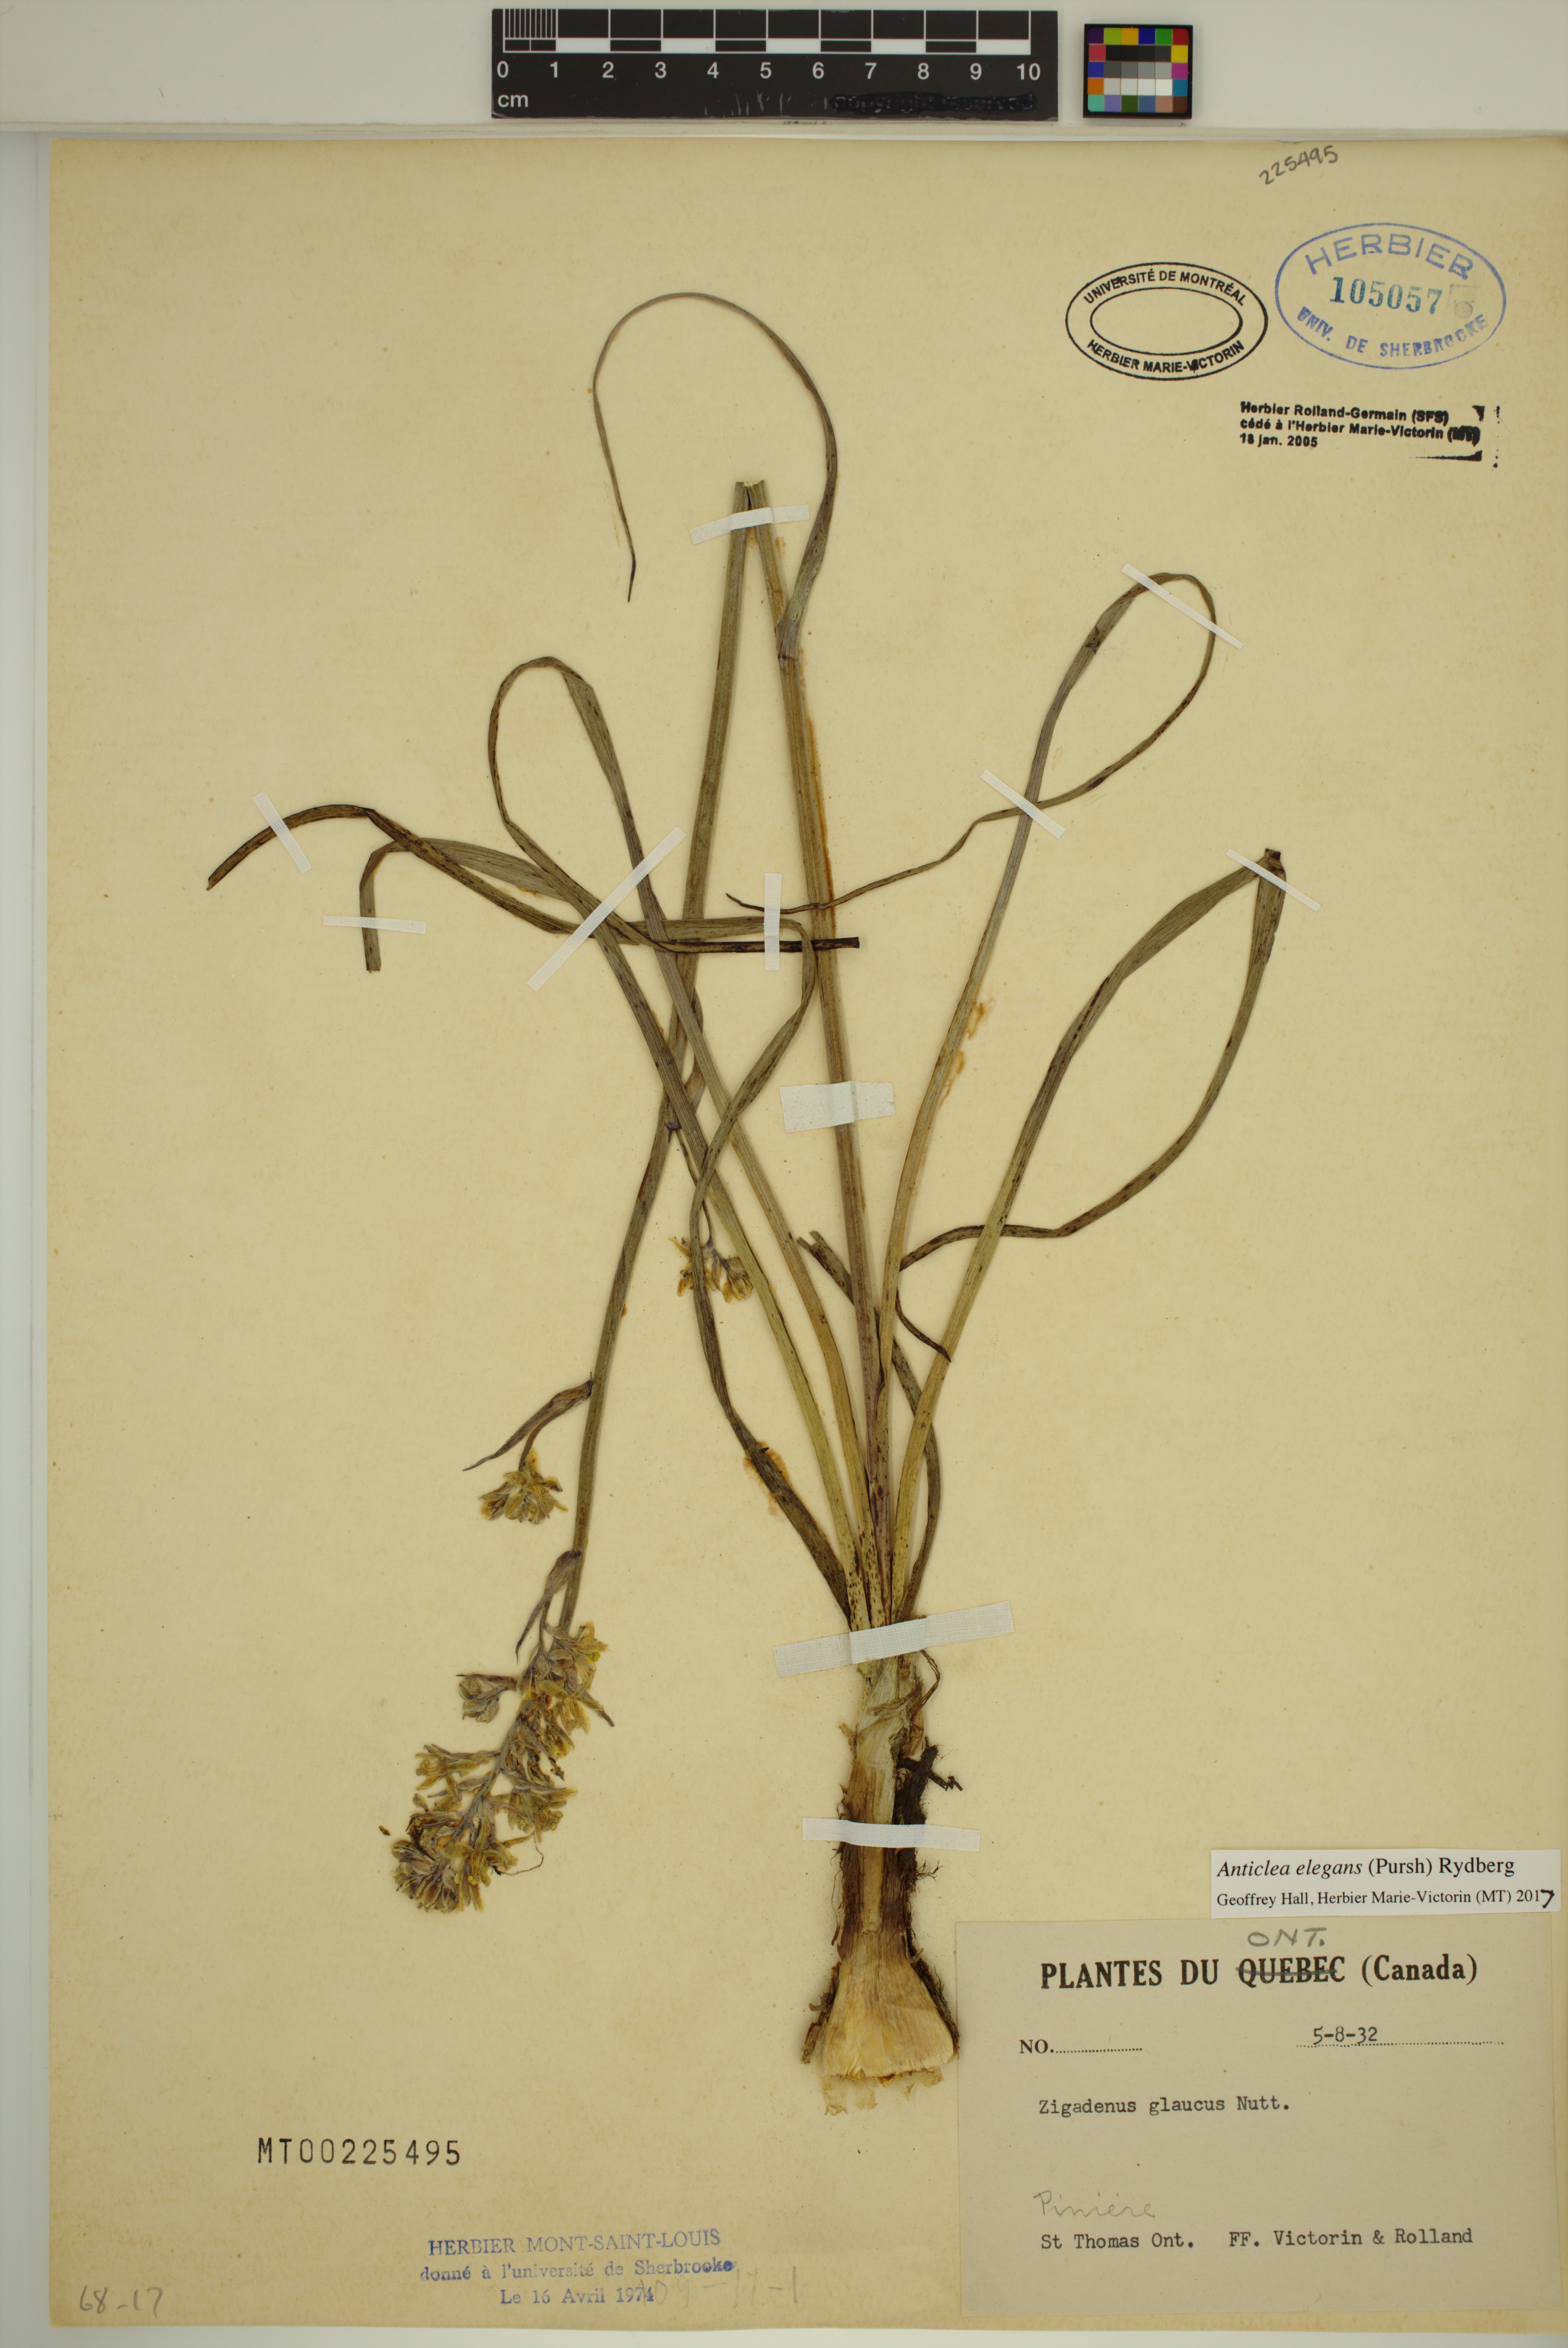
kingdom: Plantae
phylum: Tracheophyta
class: Liliopsida
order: Liliales
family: Melanthiaceae
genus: Anticlea
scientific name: Anticlea elegans
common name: Mountain death camas
